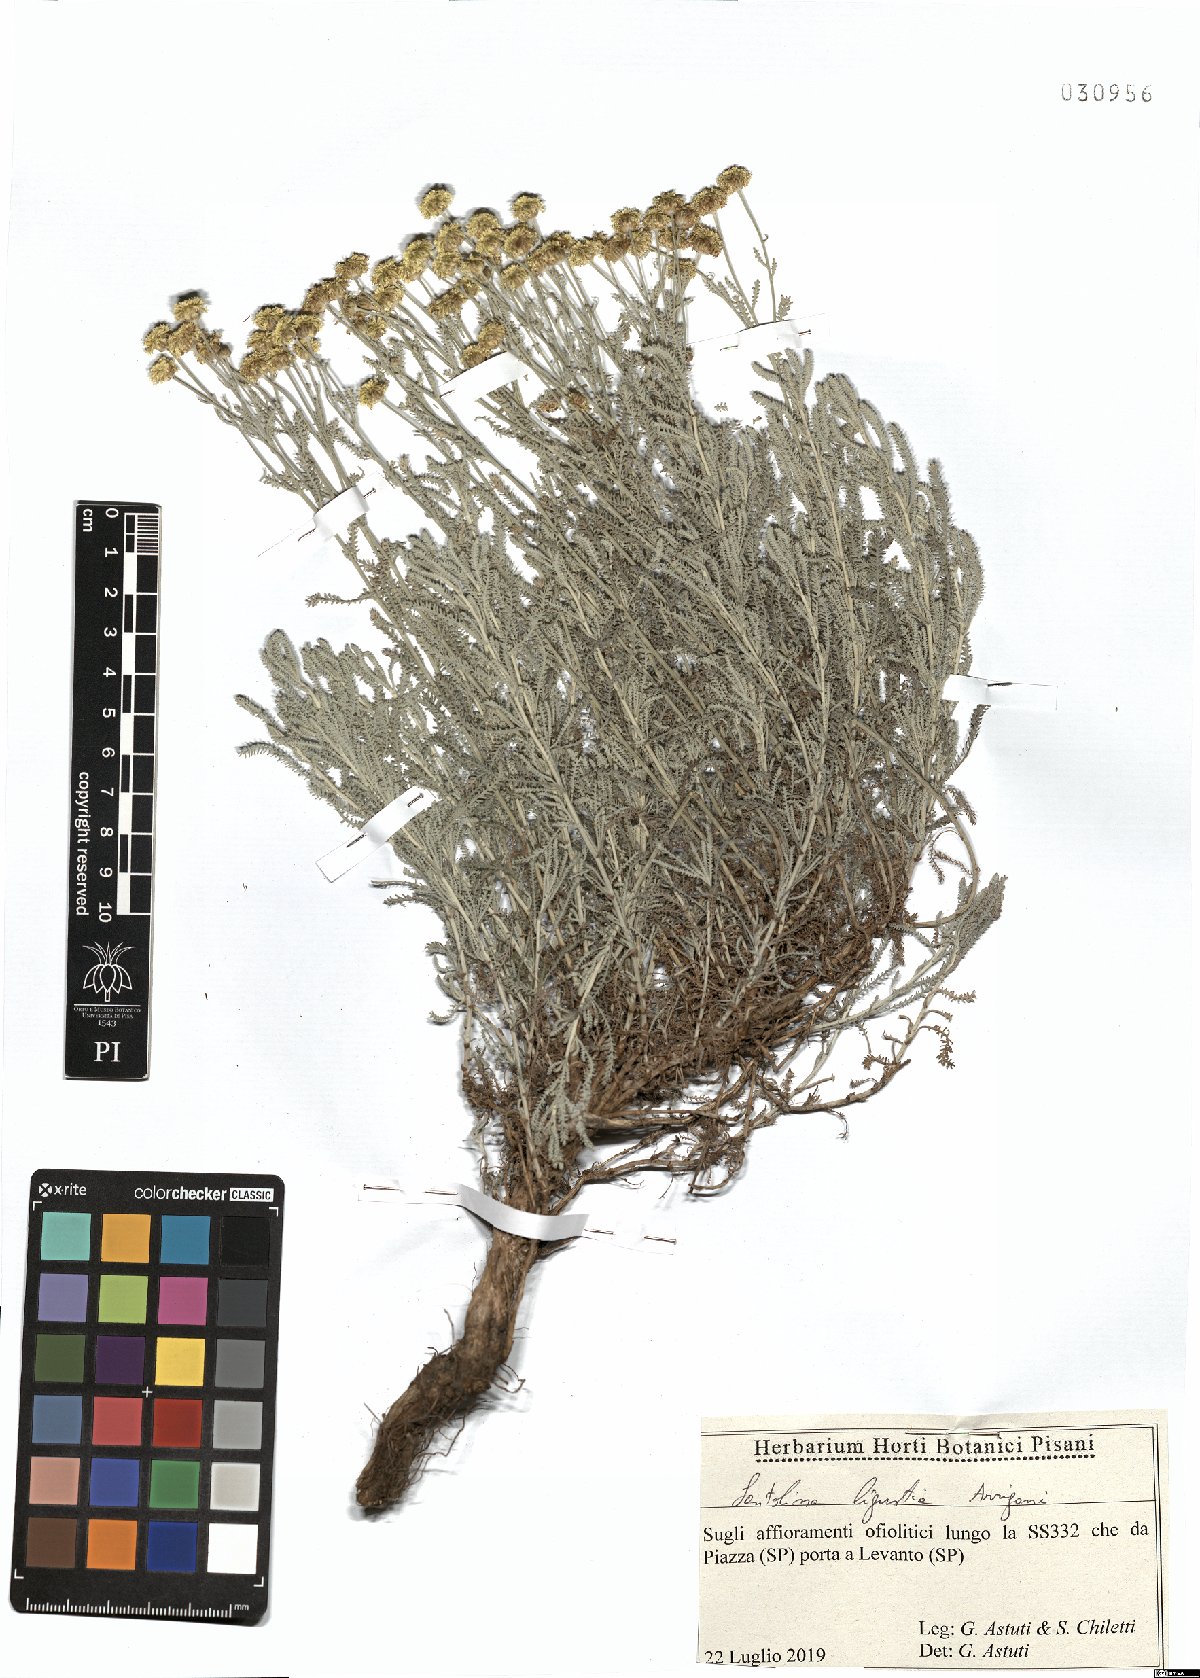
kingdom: Plantae
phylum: Tracheophyta
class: Magnoliopsida
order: Asterales
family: Asteraceae
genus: Santolina
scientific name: Santolina ligustica
